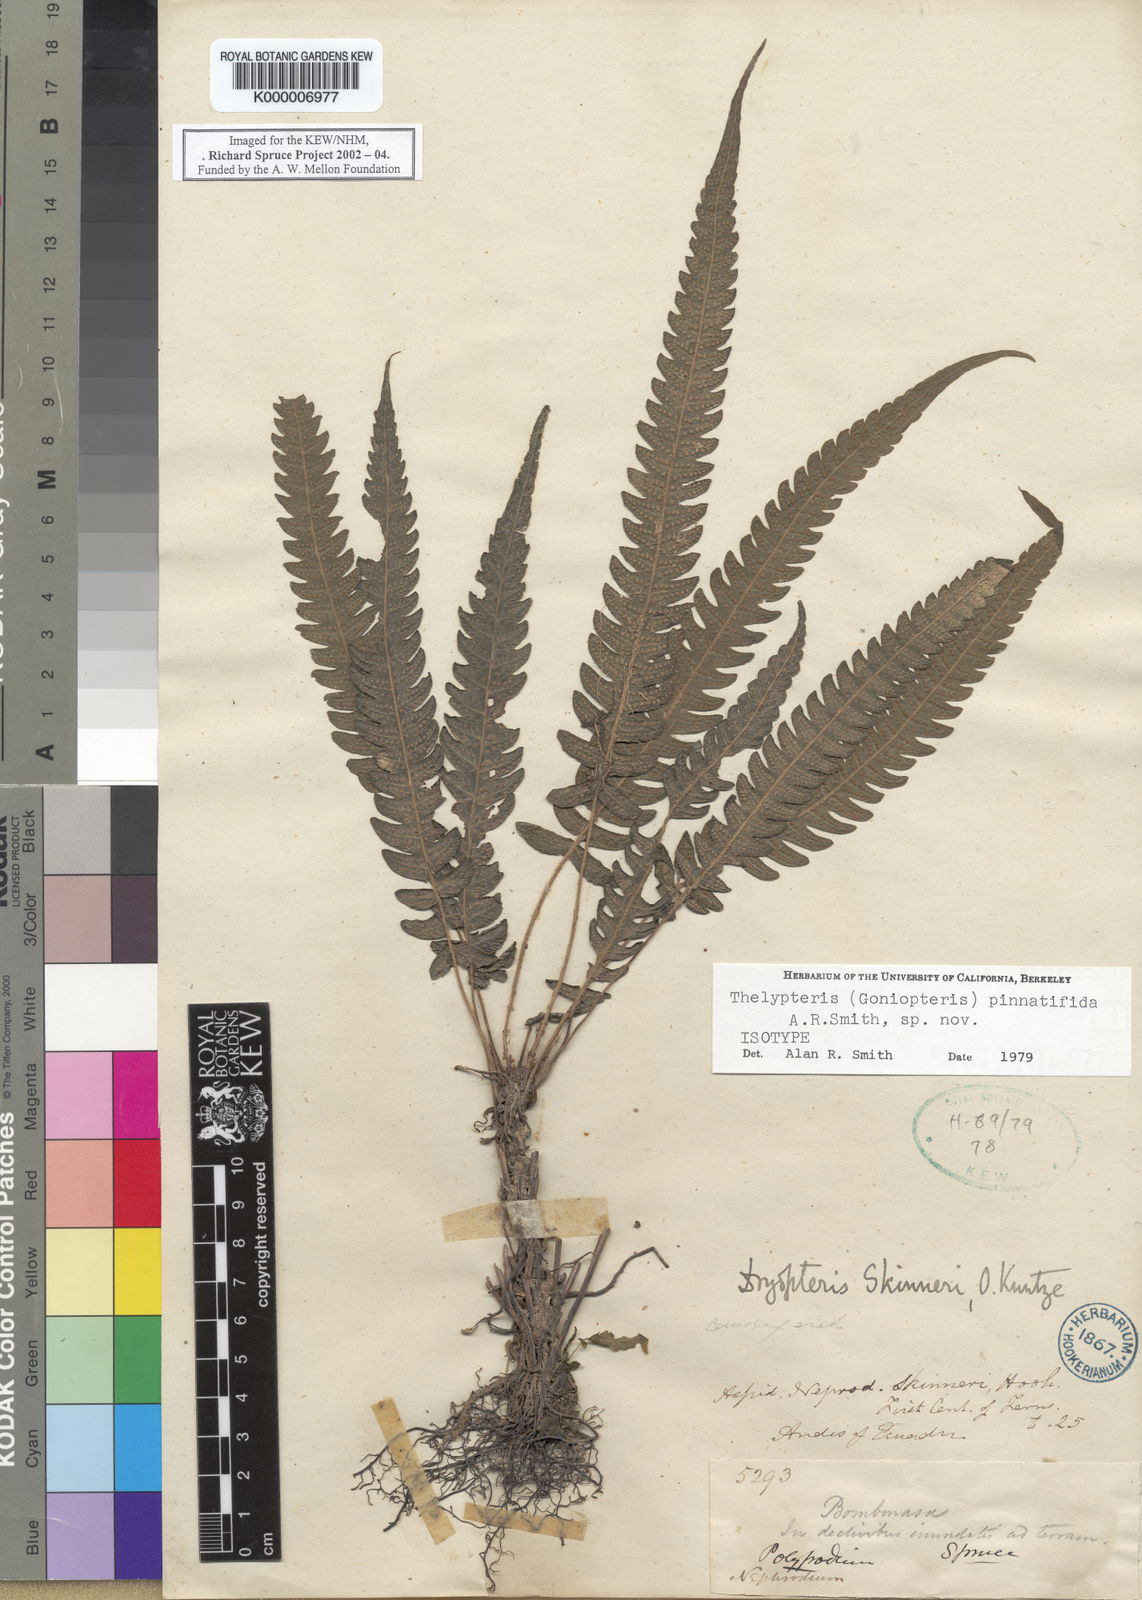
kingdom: Plantae
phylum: Tracheophyta
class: Polypodiopsida
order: Polypodiales
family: Thelypteridaceae
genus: Goniopteris
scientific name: Goniopteris pinnatifida
